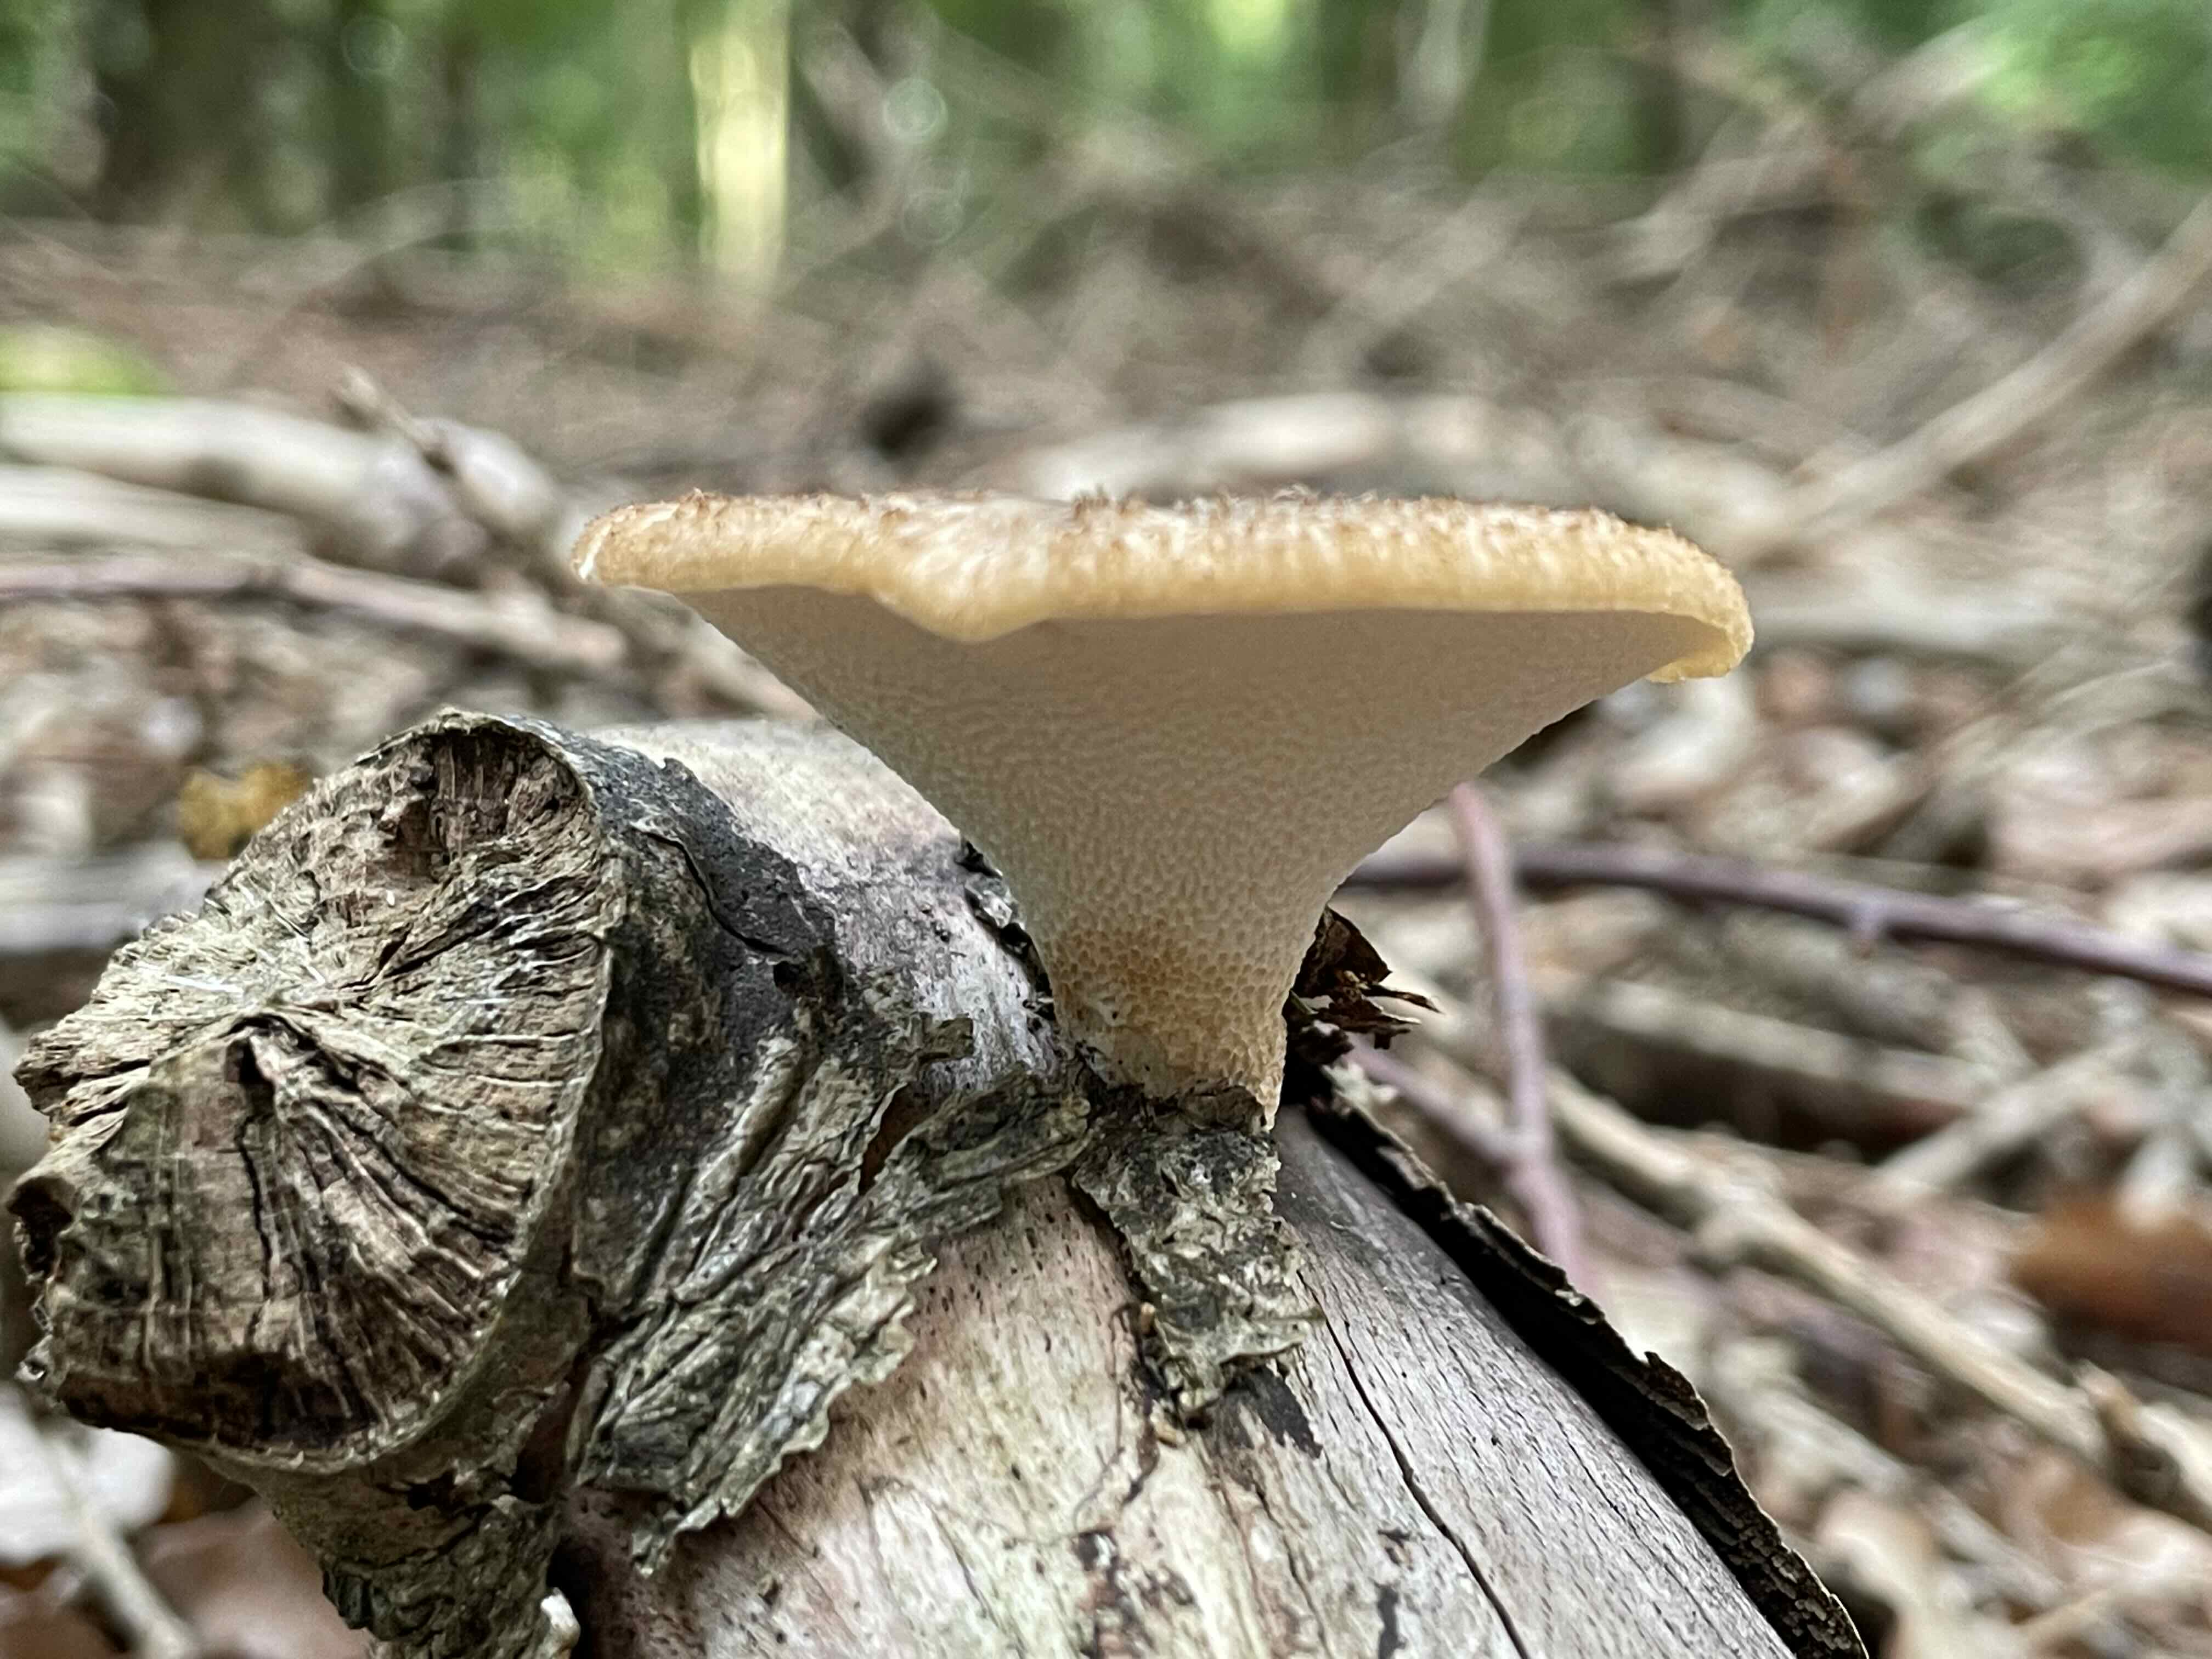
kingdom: Fungi
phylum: Basidiomycota
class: Agaricomycetes
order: Polyporales
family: Polyporaceae
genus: Polyporus
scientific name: Polyporus tuberaster
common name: knoldet stilkporesvamp
